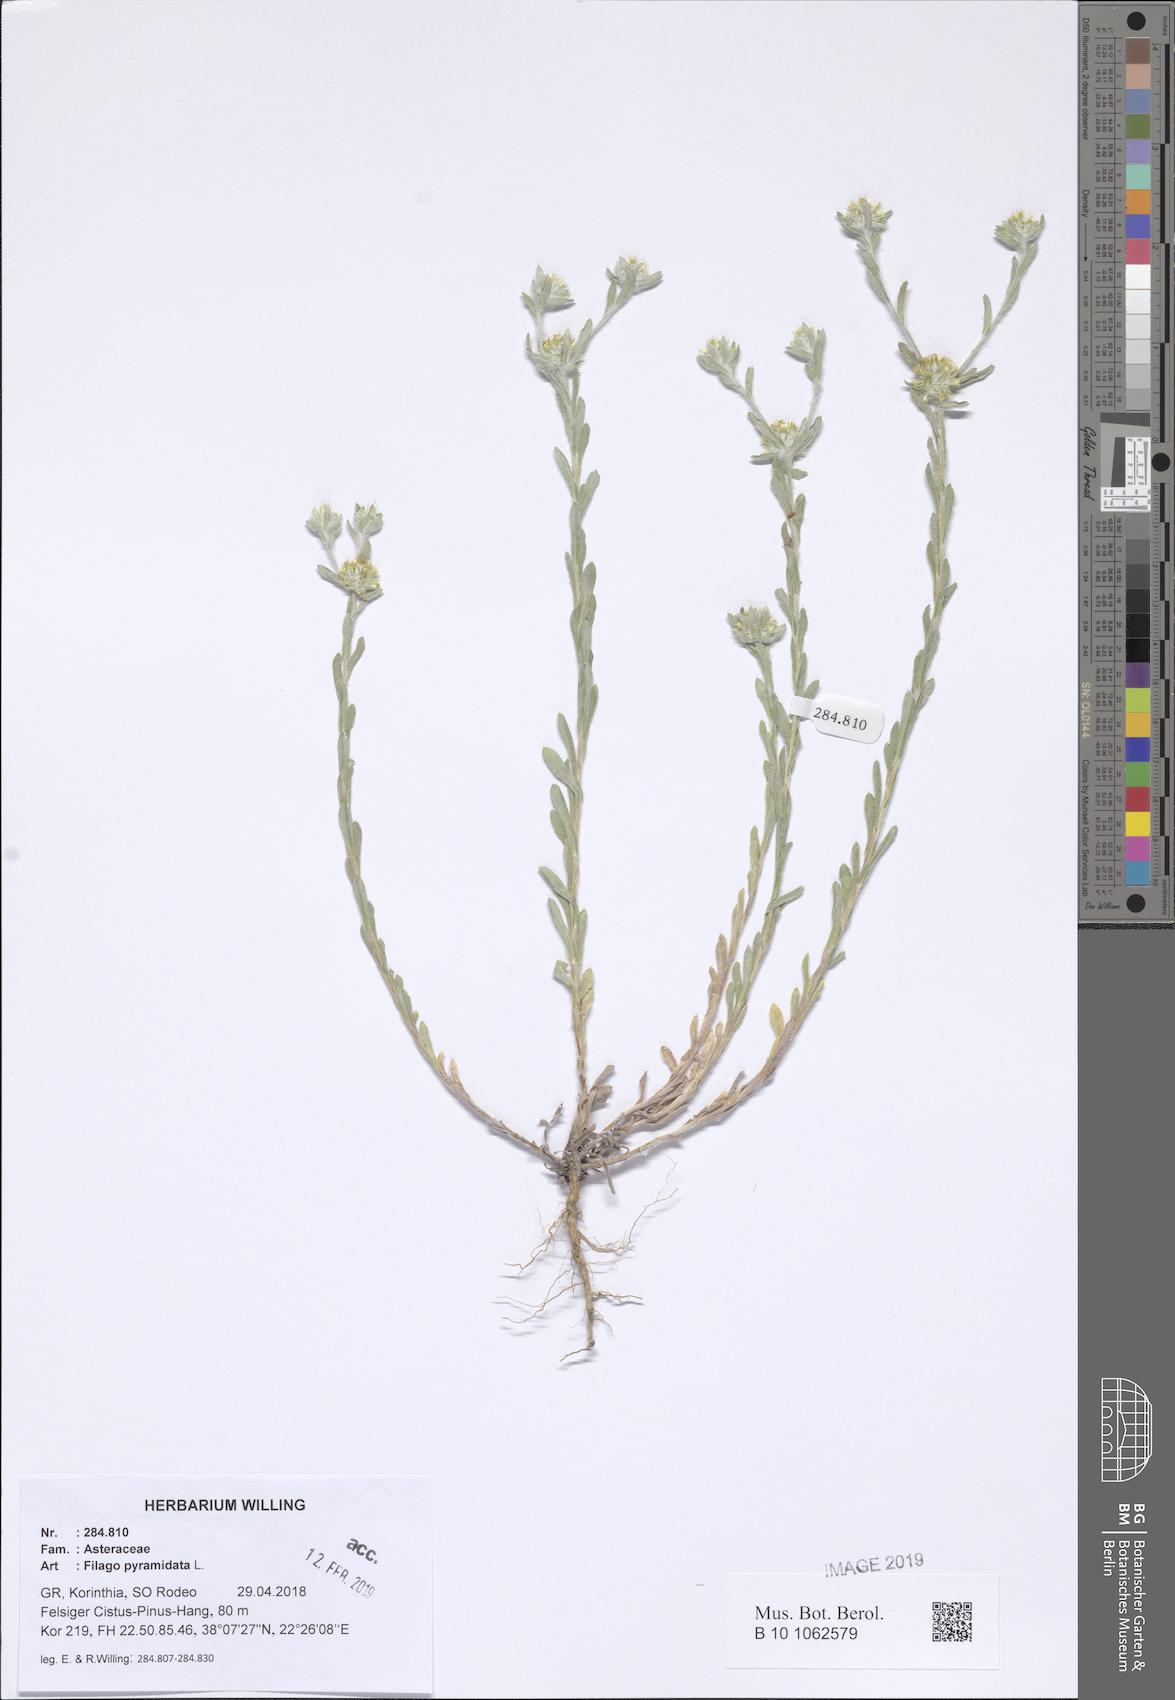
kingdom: Plantae
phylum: Tracheophyta
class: Magnoliopsida
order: Asterales
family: Asteraceae
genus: Filago
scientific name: Filago pyramidata
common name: Broad-leaved cudweed
